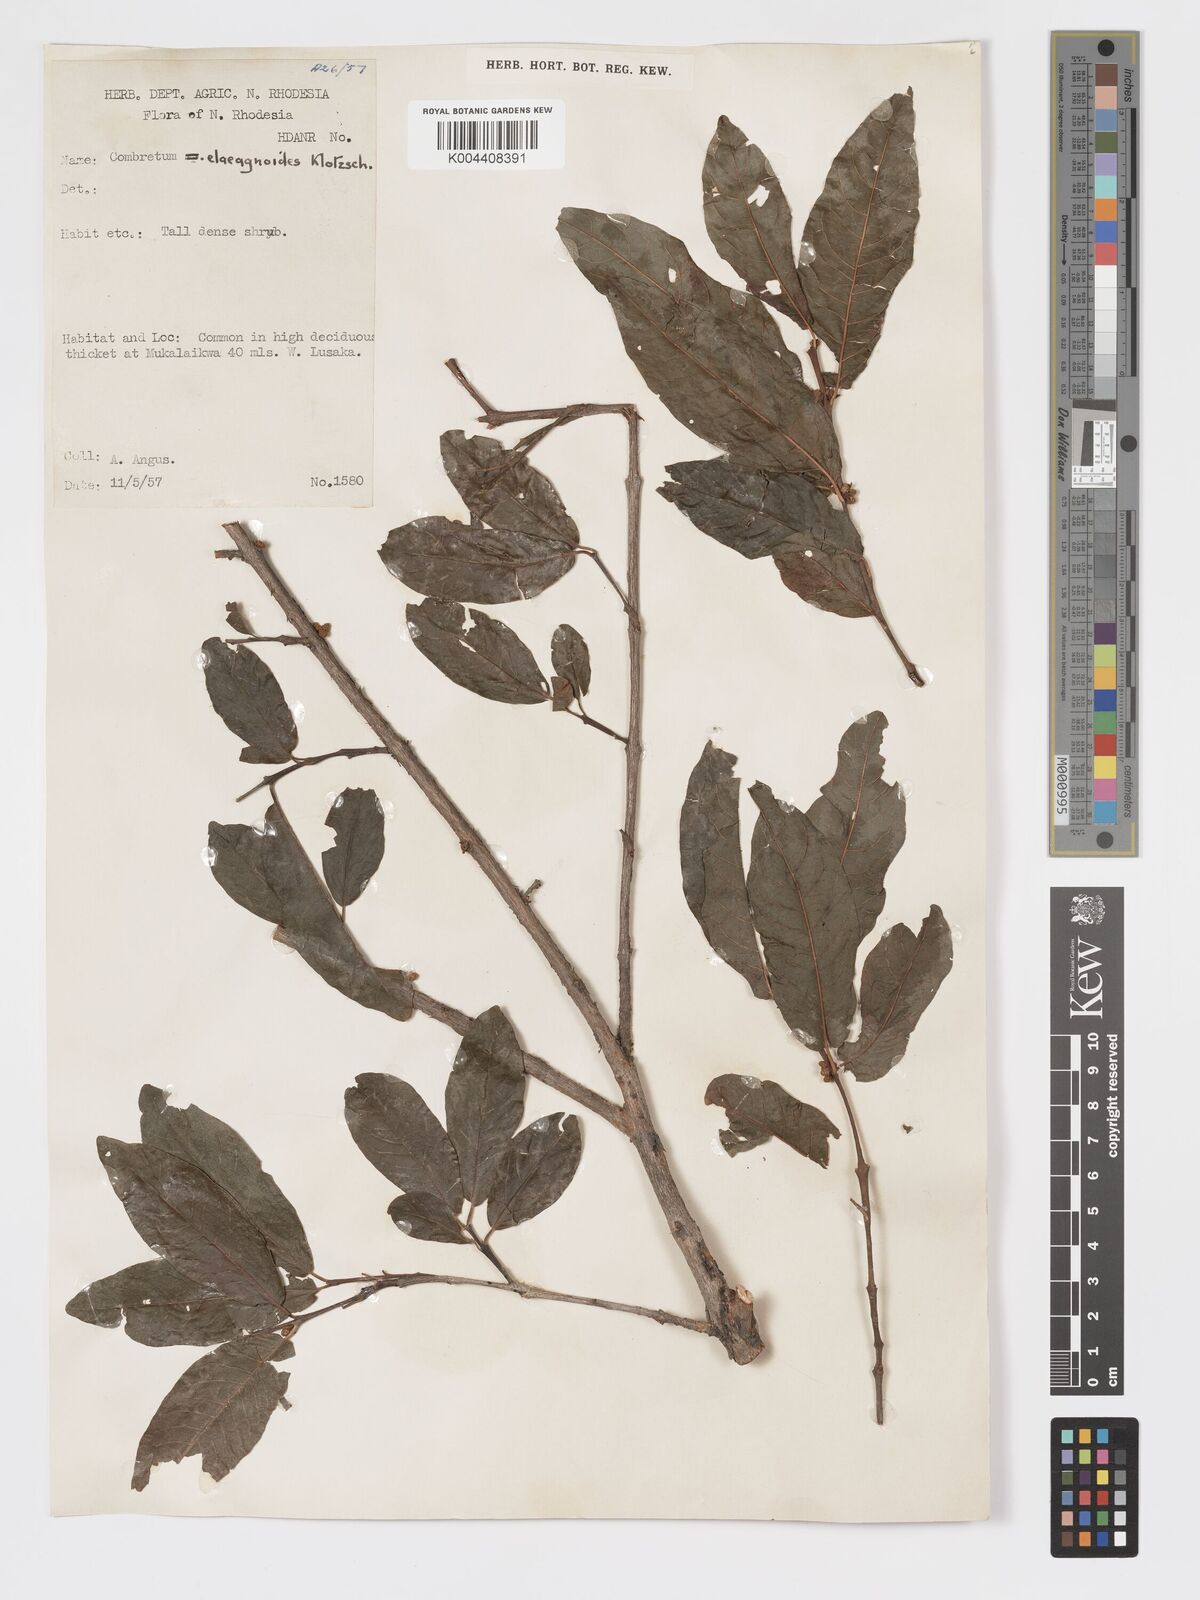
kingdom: Plantae
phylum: Tracheophyta
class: Magnoliopsida
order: Myrtales
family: Combretaceae
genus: Combretum
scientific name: Combretum elaeagnoides
